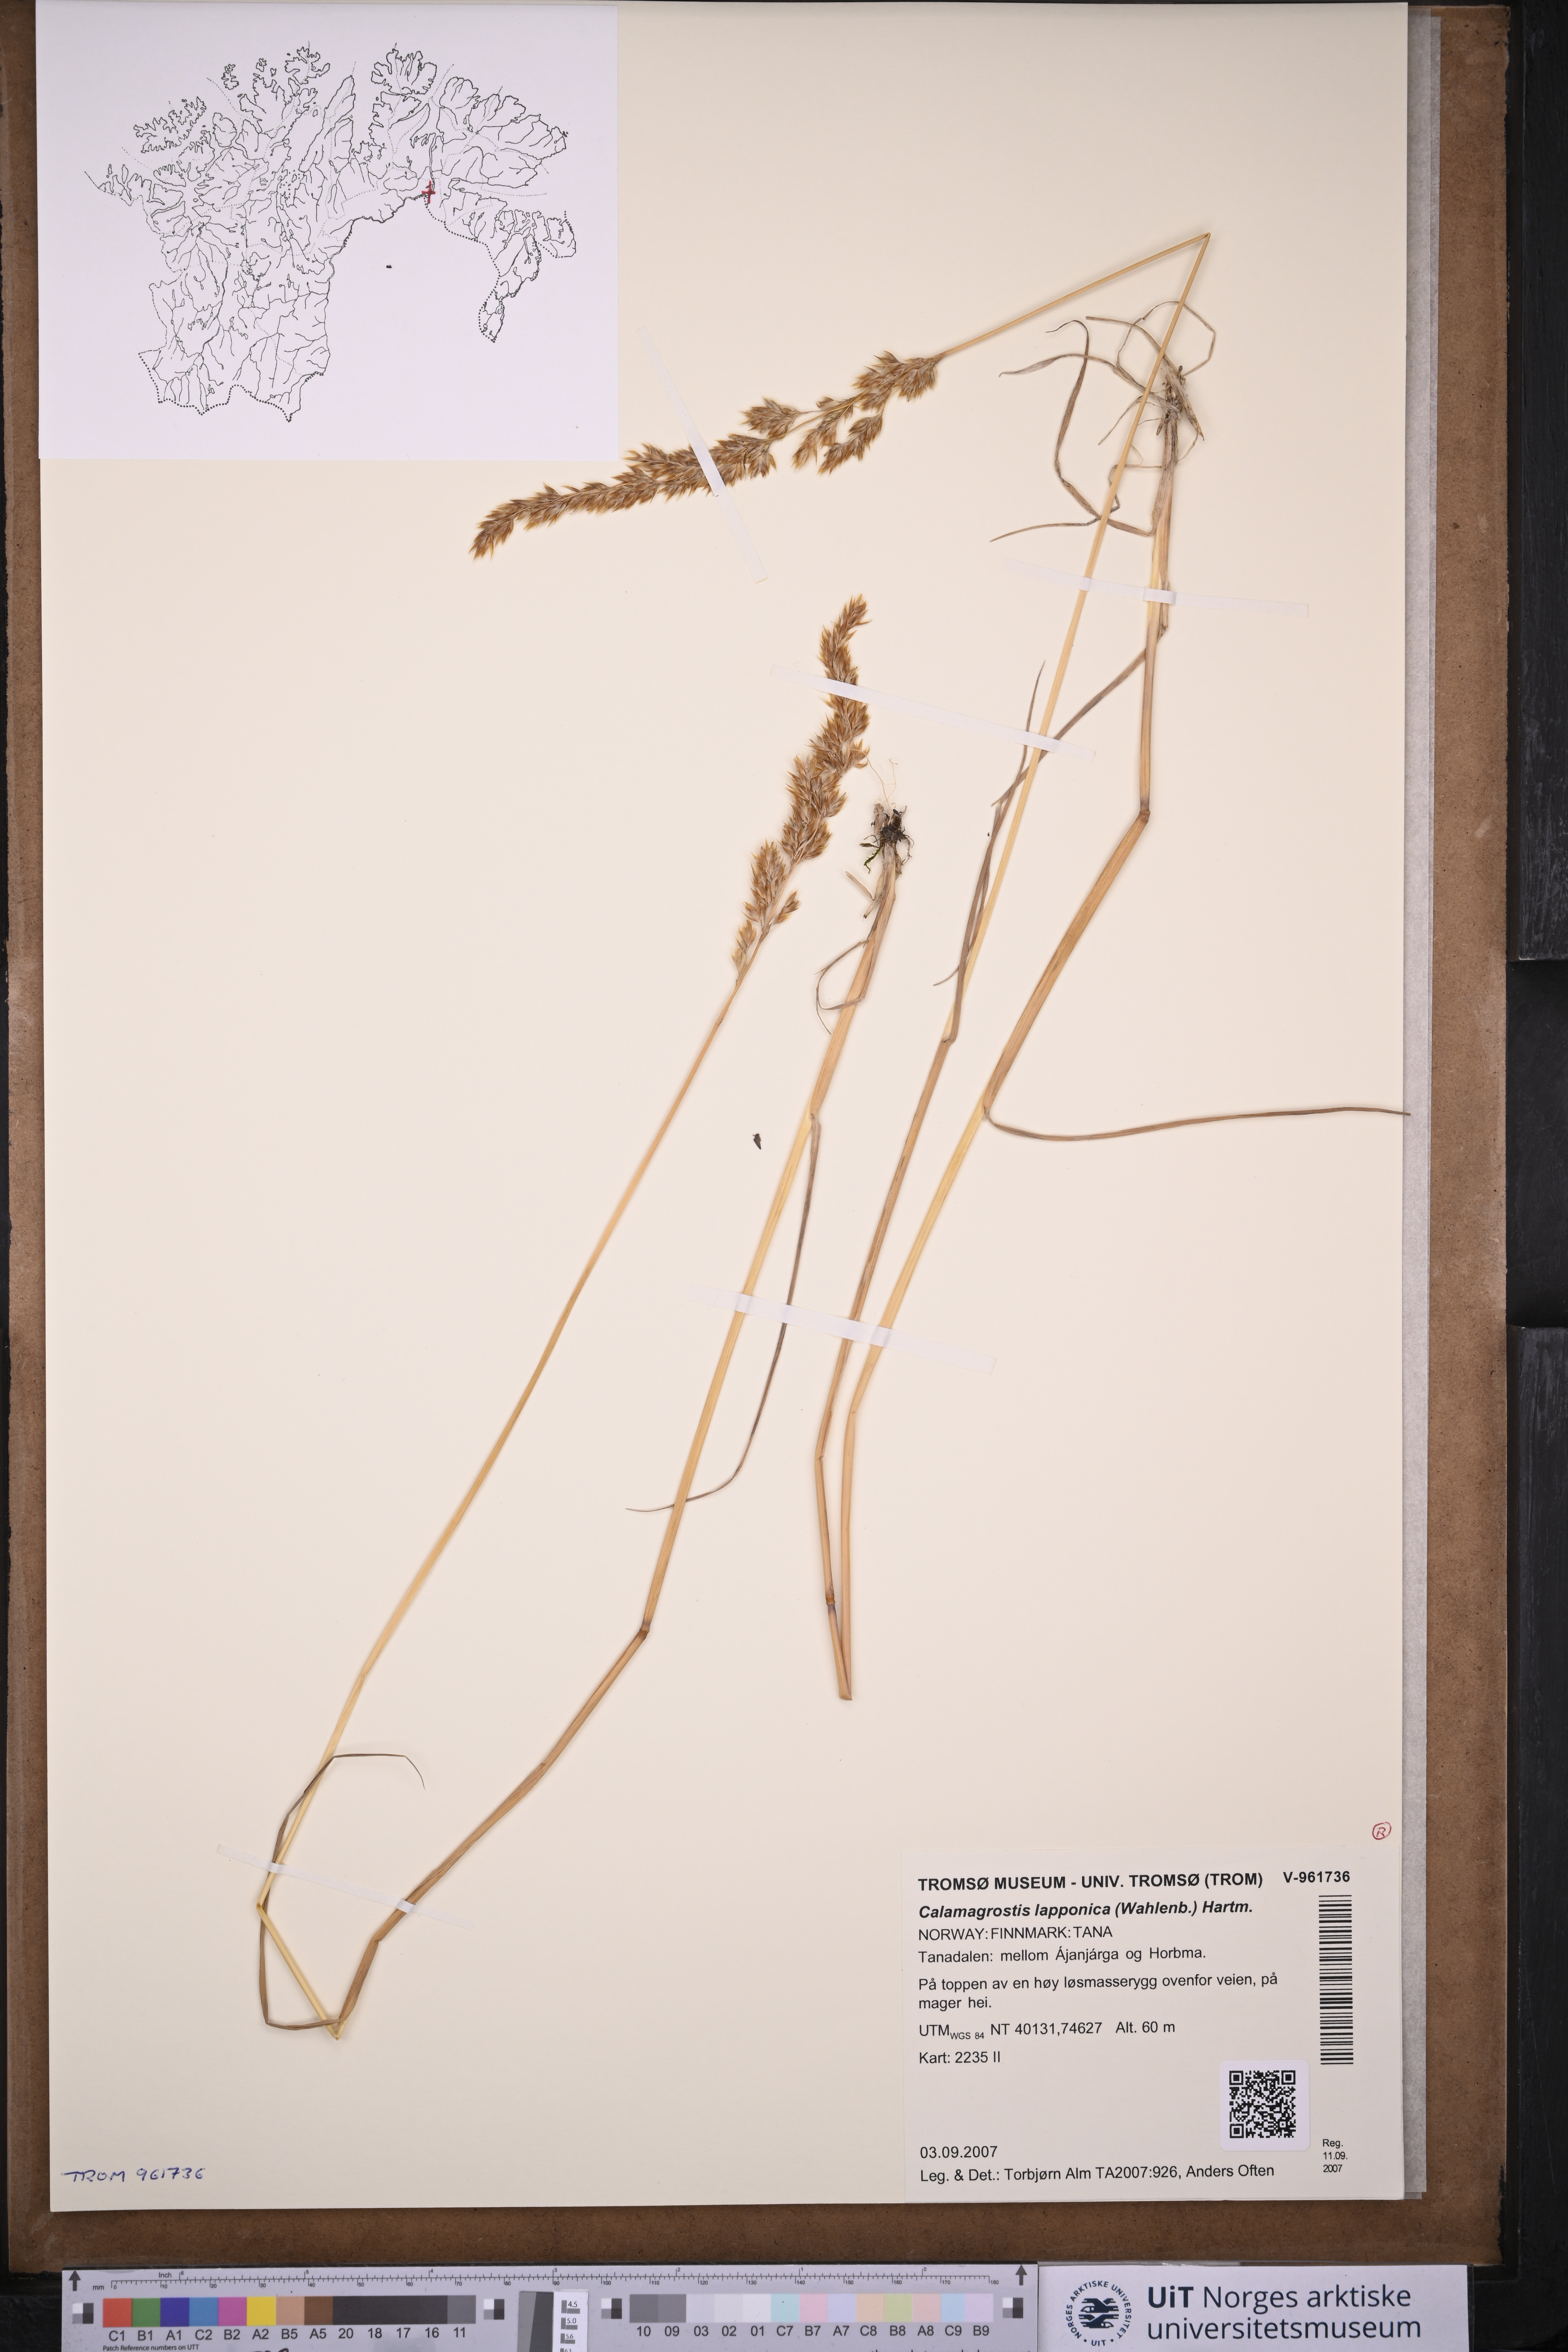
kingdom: Plantae
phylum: Tracheophyta
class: Liliopsida
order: Poales
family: Poaceae
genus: Calamagrostis
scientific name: Calamagrostis lapponica
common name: Lapland reedgrass
